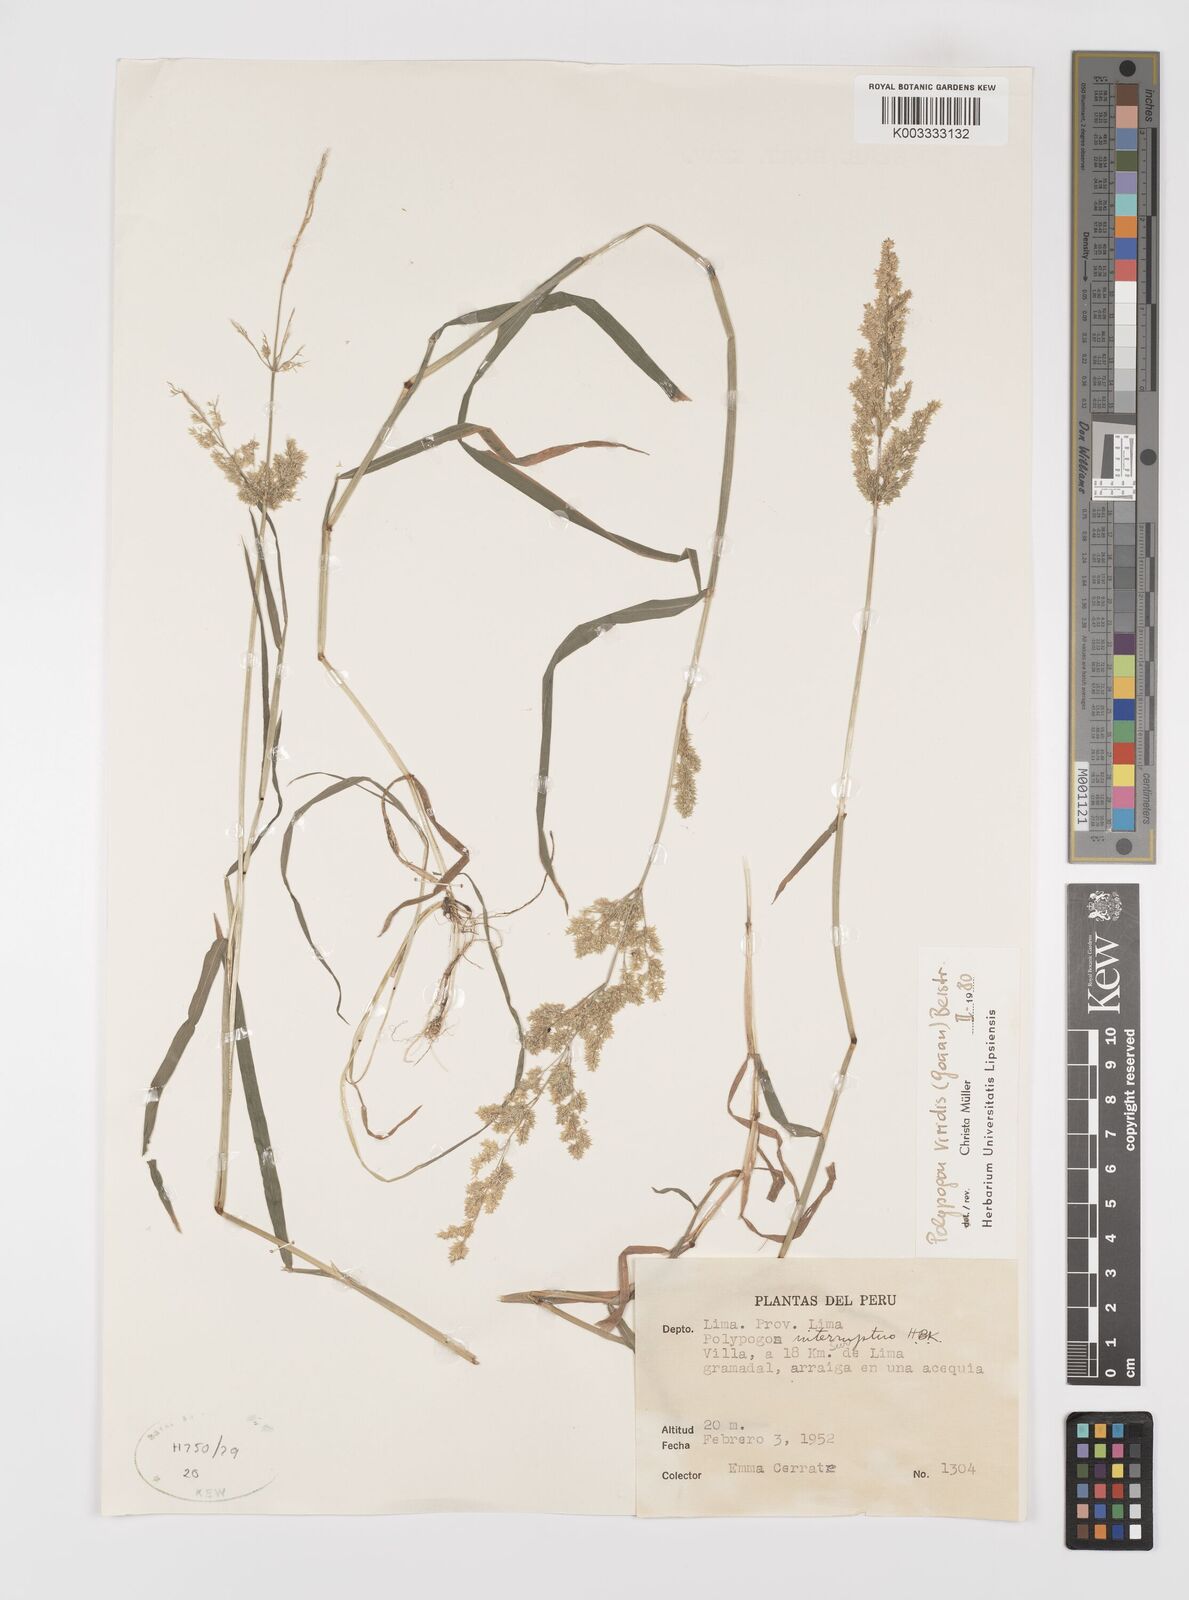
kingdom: Plantae
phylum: Tracheophyta
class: Liliopsida
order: Poales
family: Poaceae
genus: Polypogon
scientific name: Polypogon viridis
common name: Water bent
